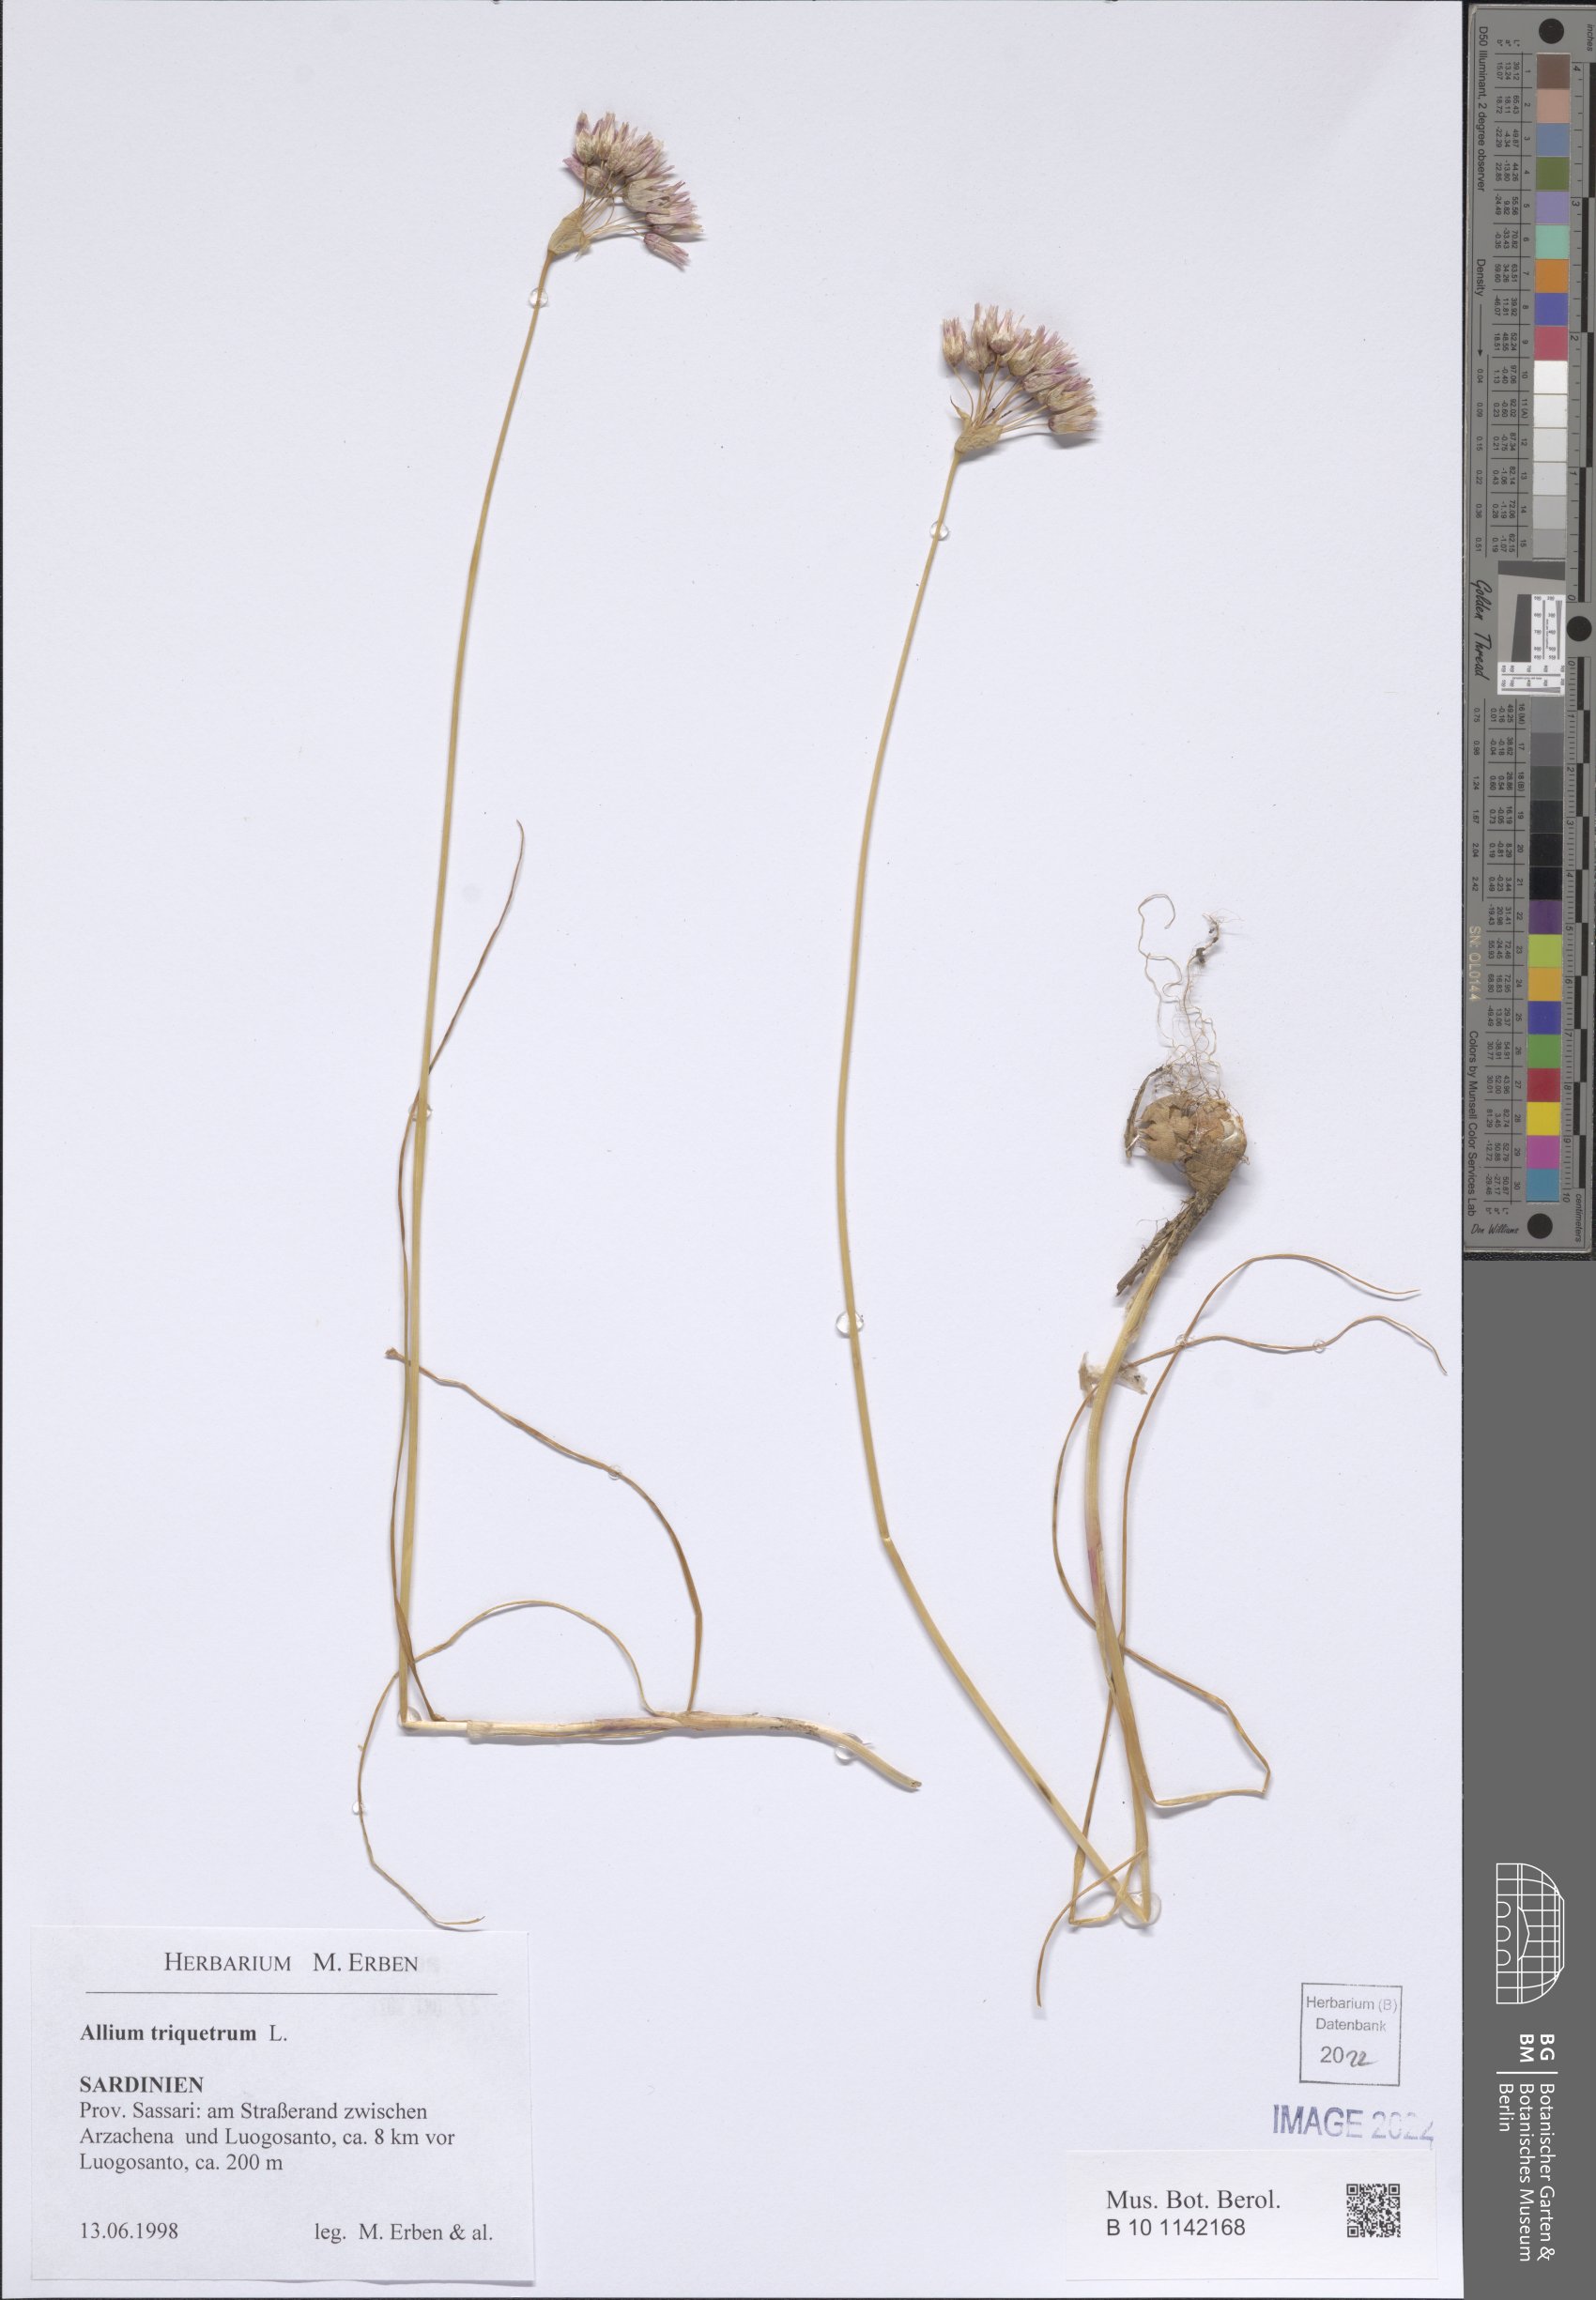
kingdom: Plantae
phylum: Tracheophyta
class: Liliopsida
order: Asparagales
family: Amaryllidaceae
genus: Allium
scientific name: Allium triquetrum
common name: Three-cornered garlic
